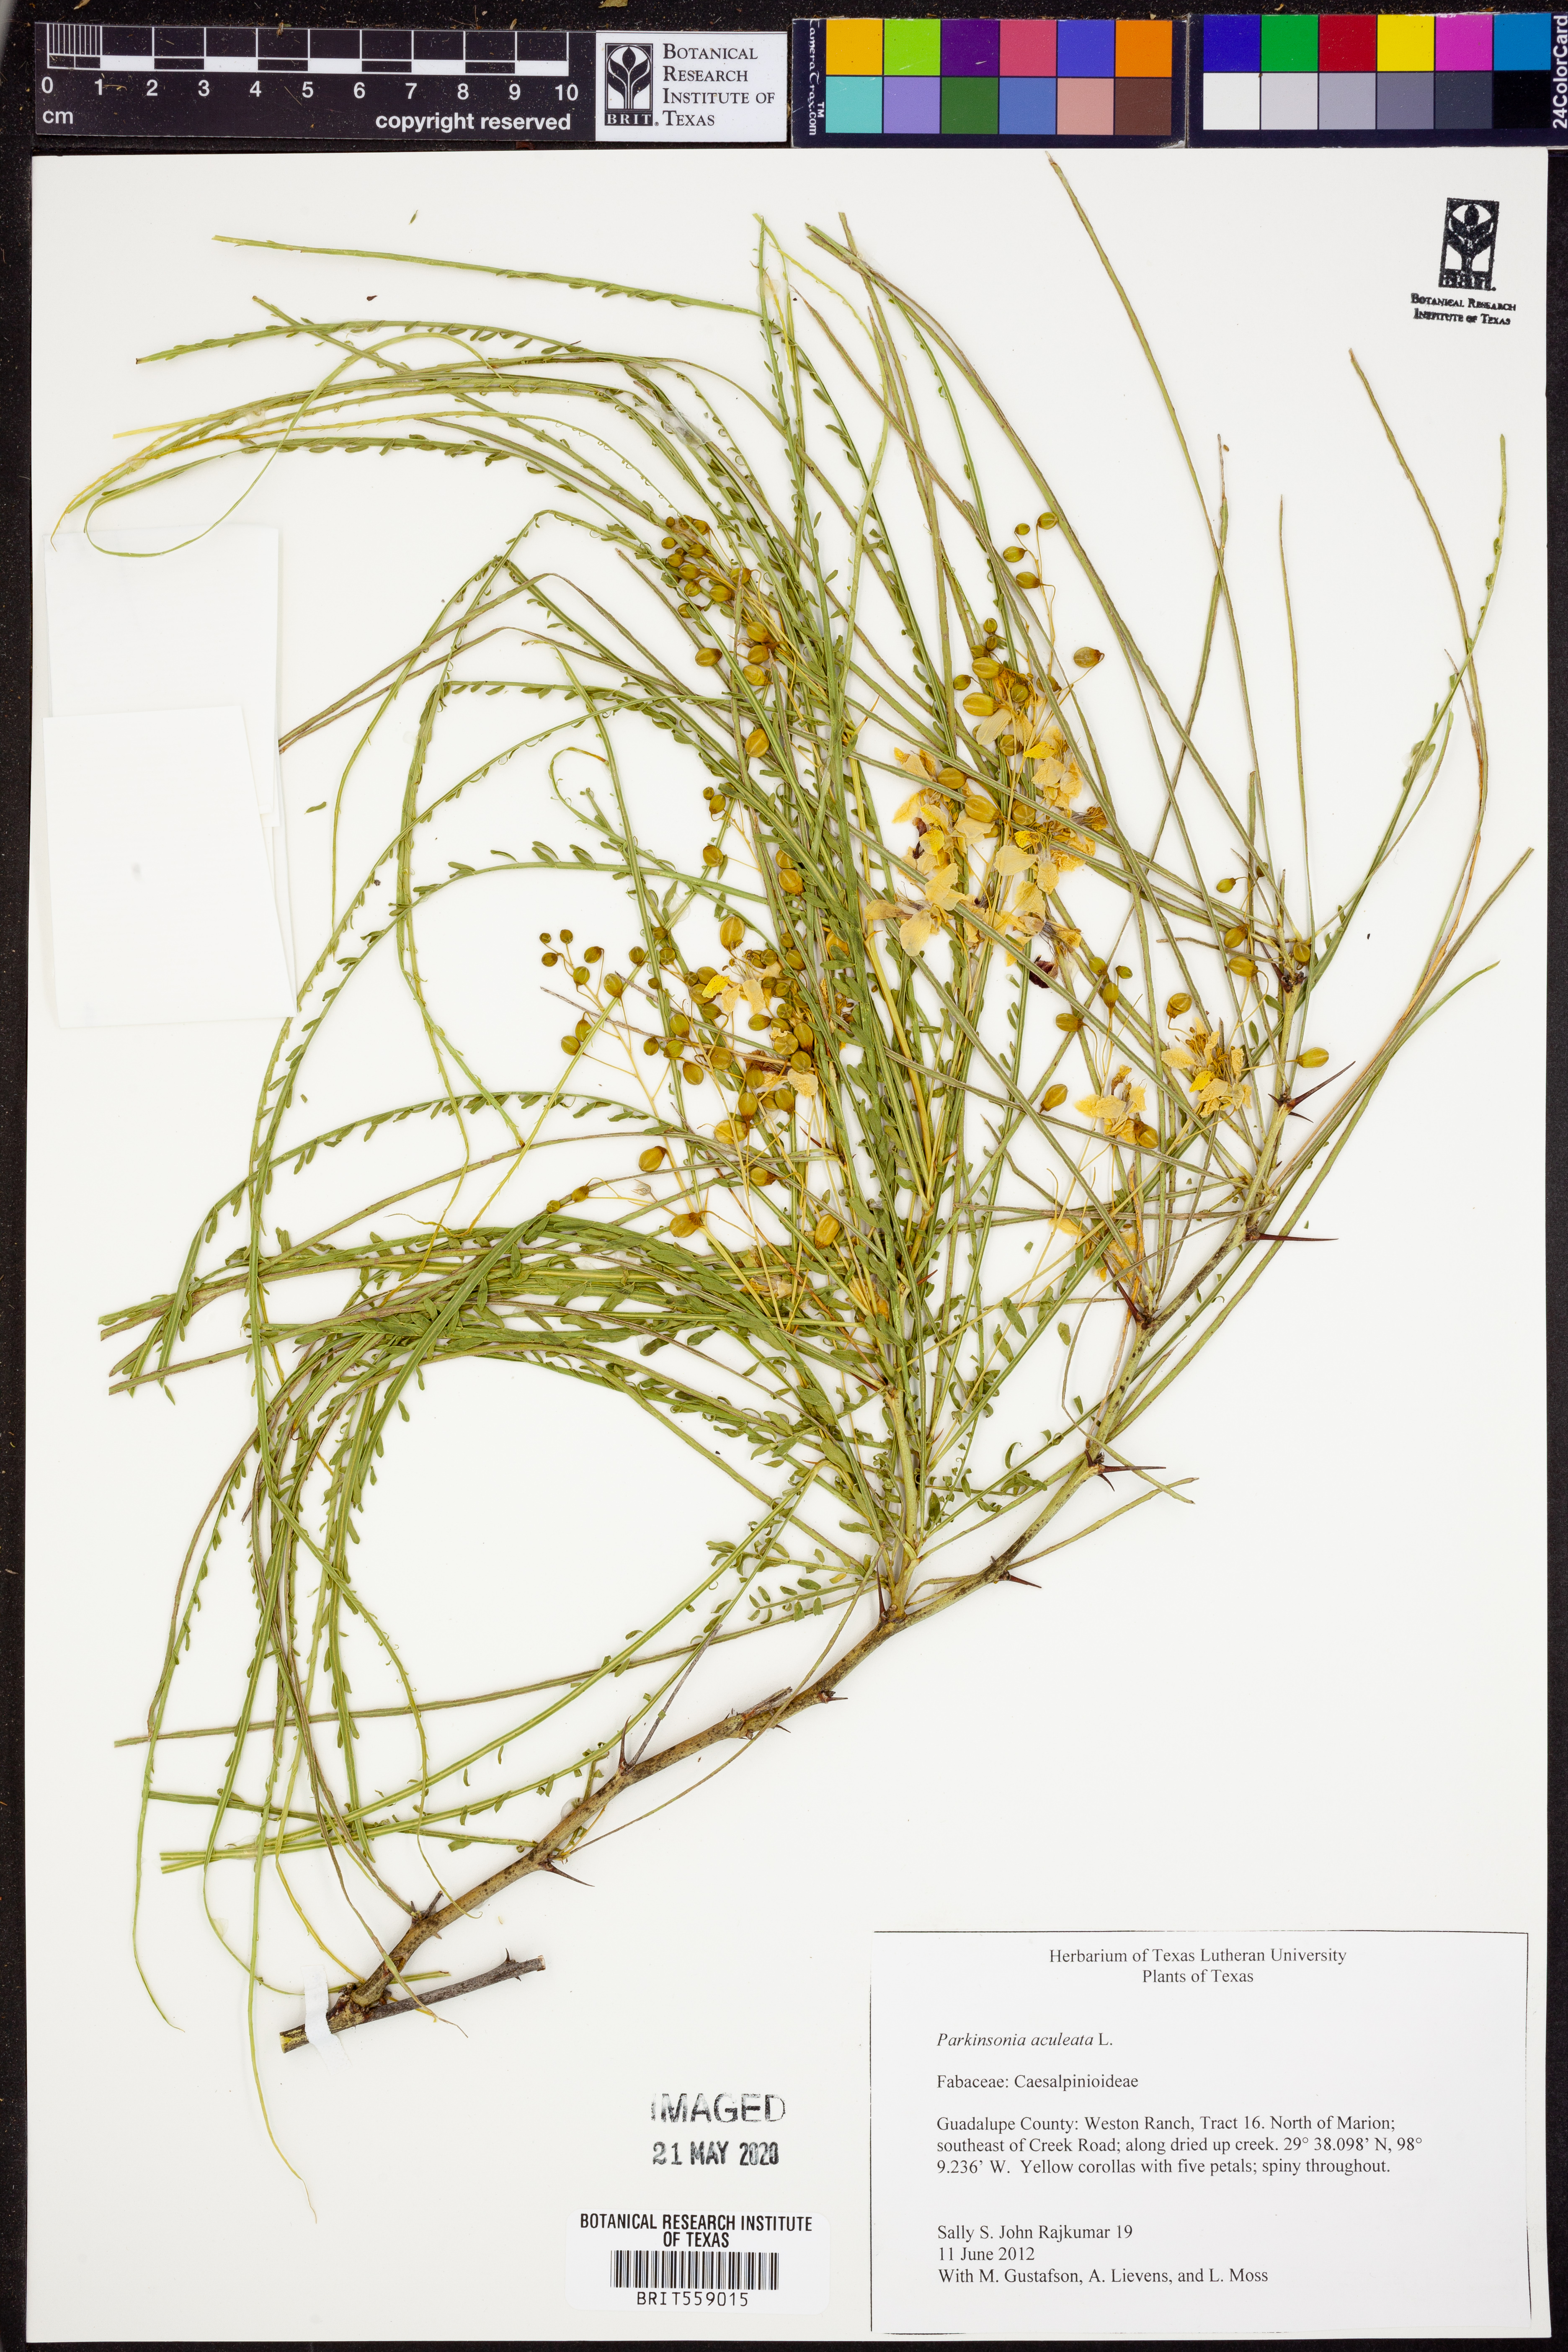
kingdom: Plantae
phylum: Tracheophyta
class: Magnoliopsida
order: Fabales
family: Fabaceae
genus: Parkinsonia
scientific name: Parkinsonia aculeata
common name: Jerusalem thorn
